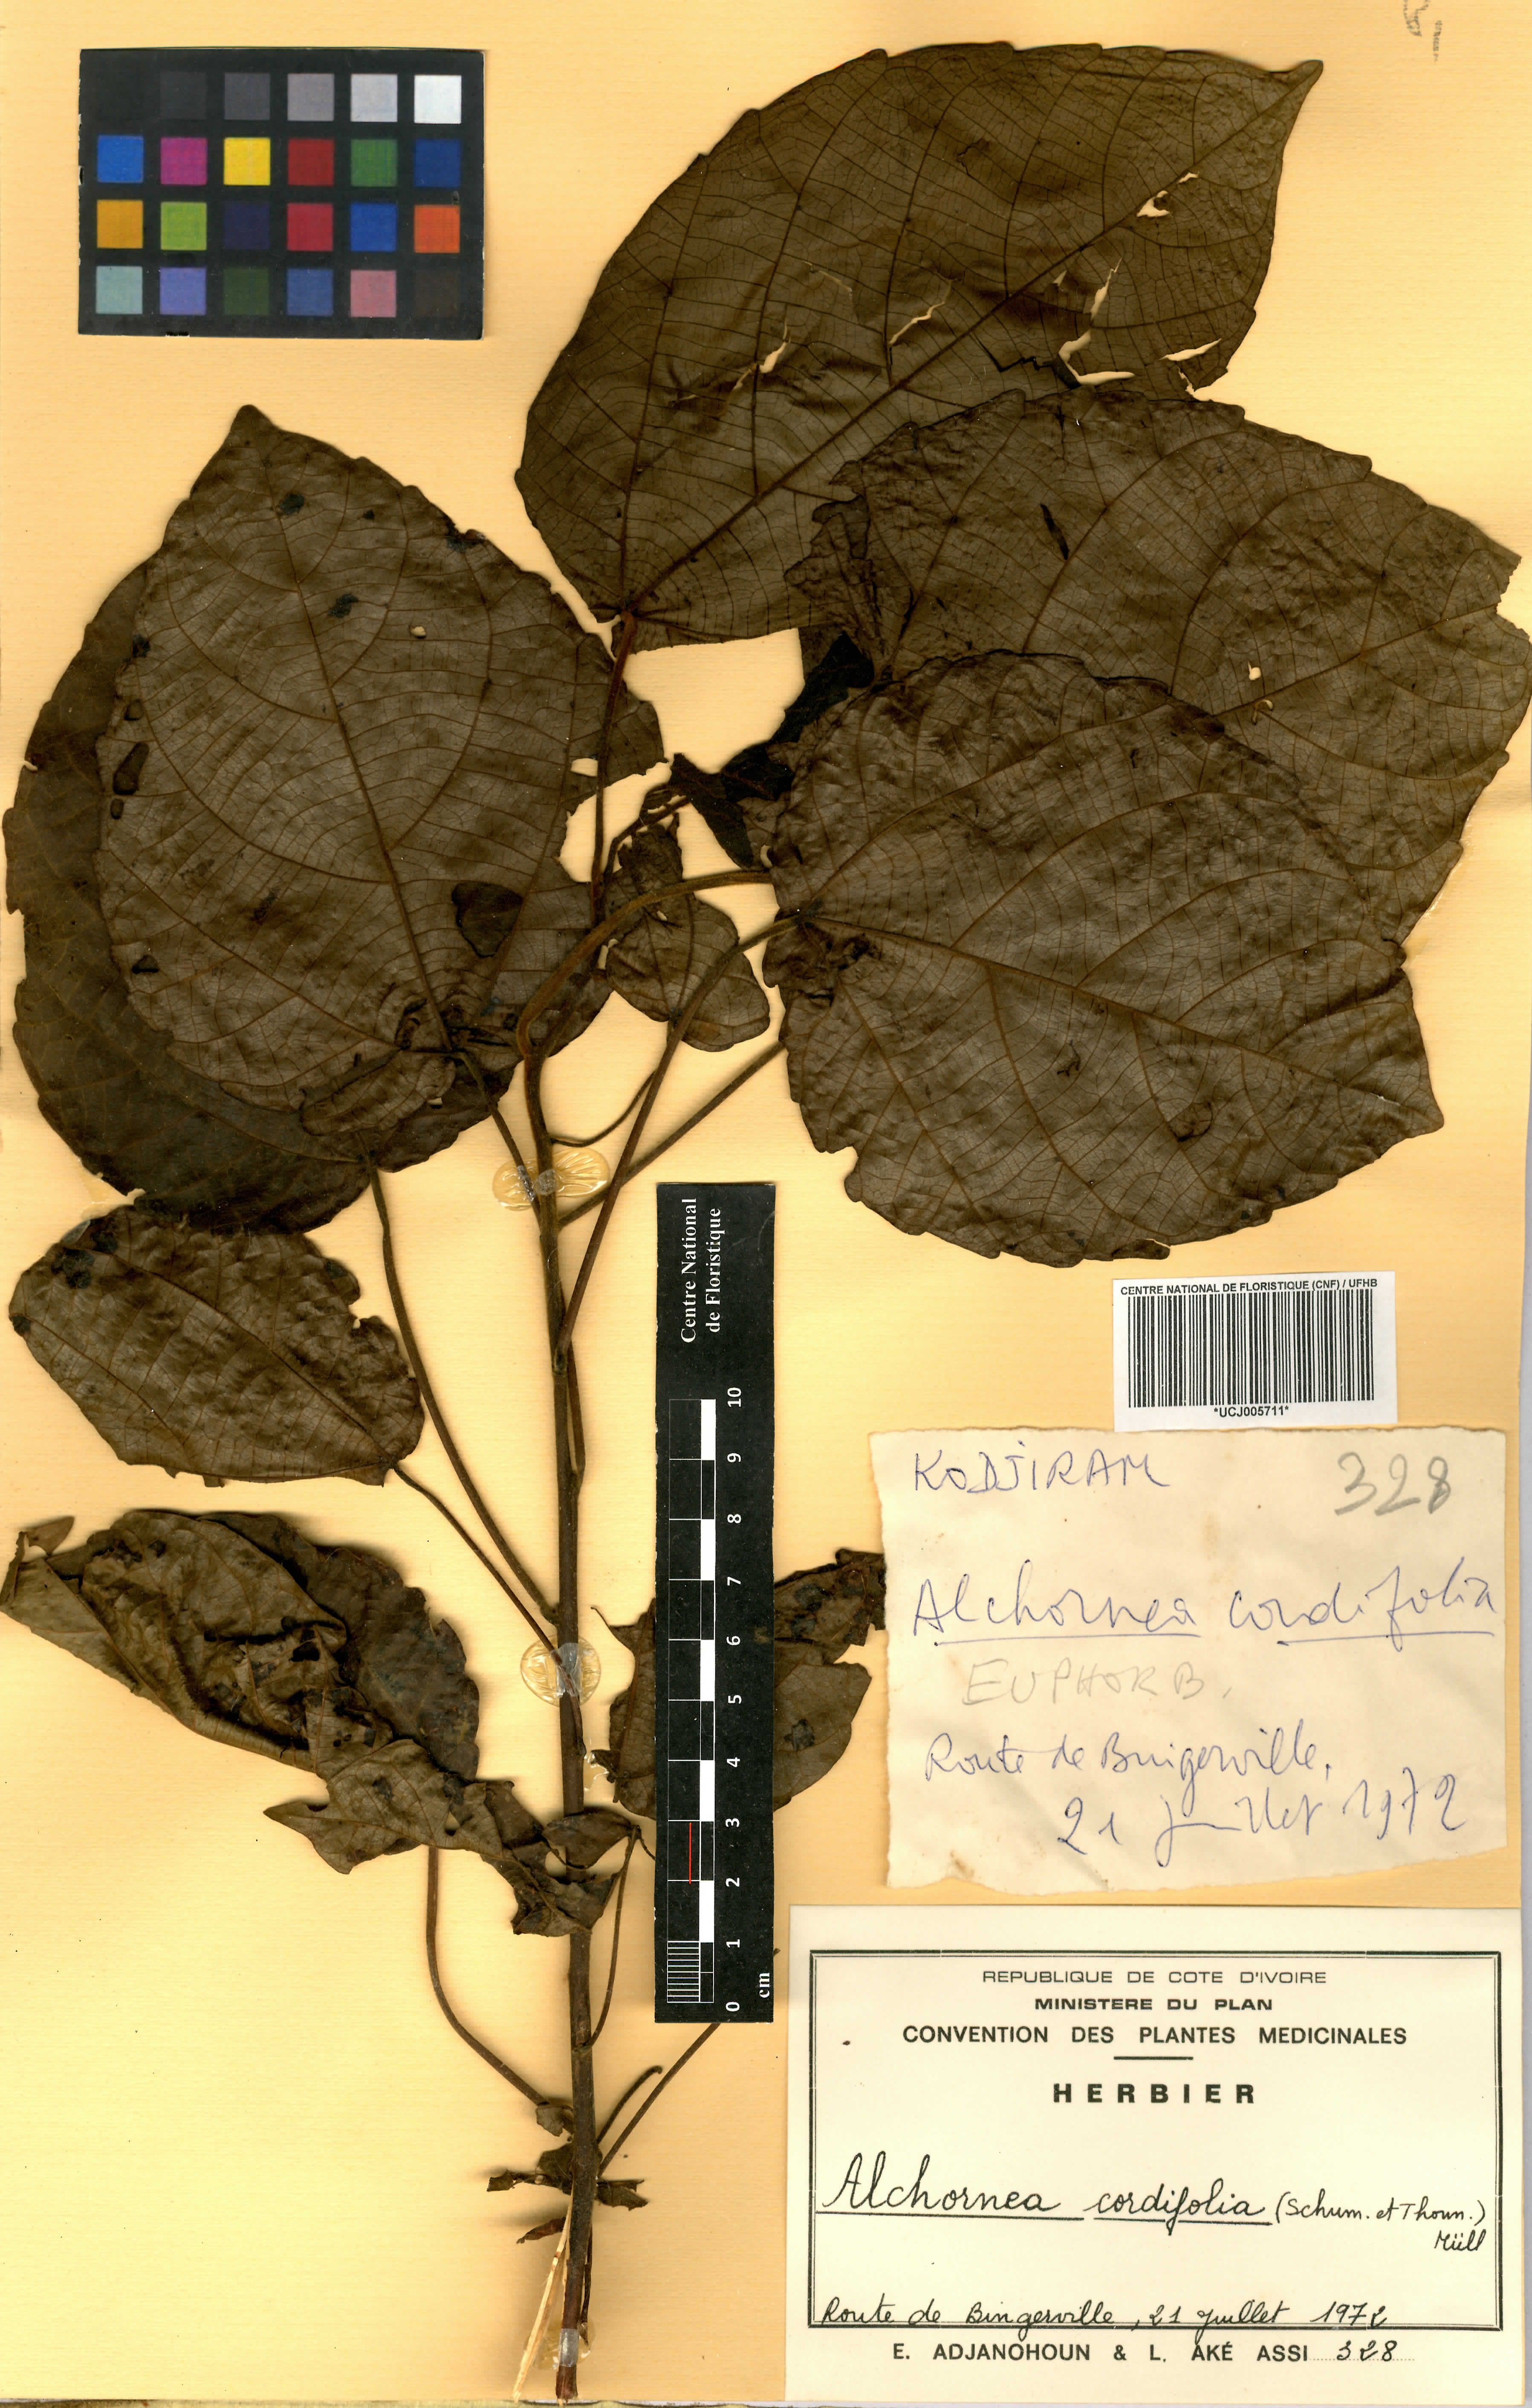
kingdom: Plantae
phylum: Tracheophyta
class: Magnoliopsida
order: Malpighiales
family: Euphorbiaceae
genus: Alchornea
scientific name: Alchornea cordifolia
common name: Christmasbush
